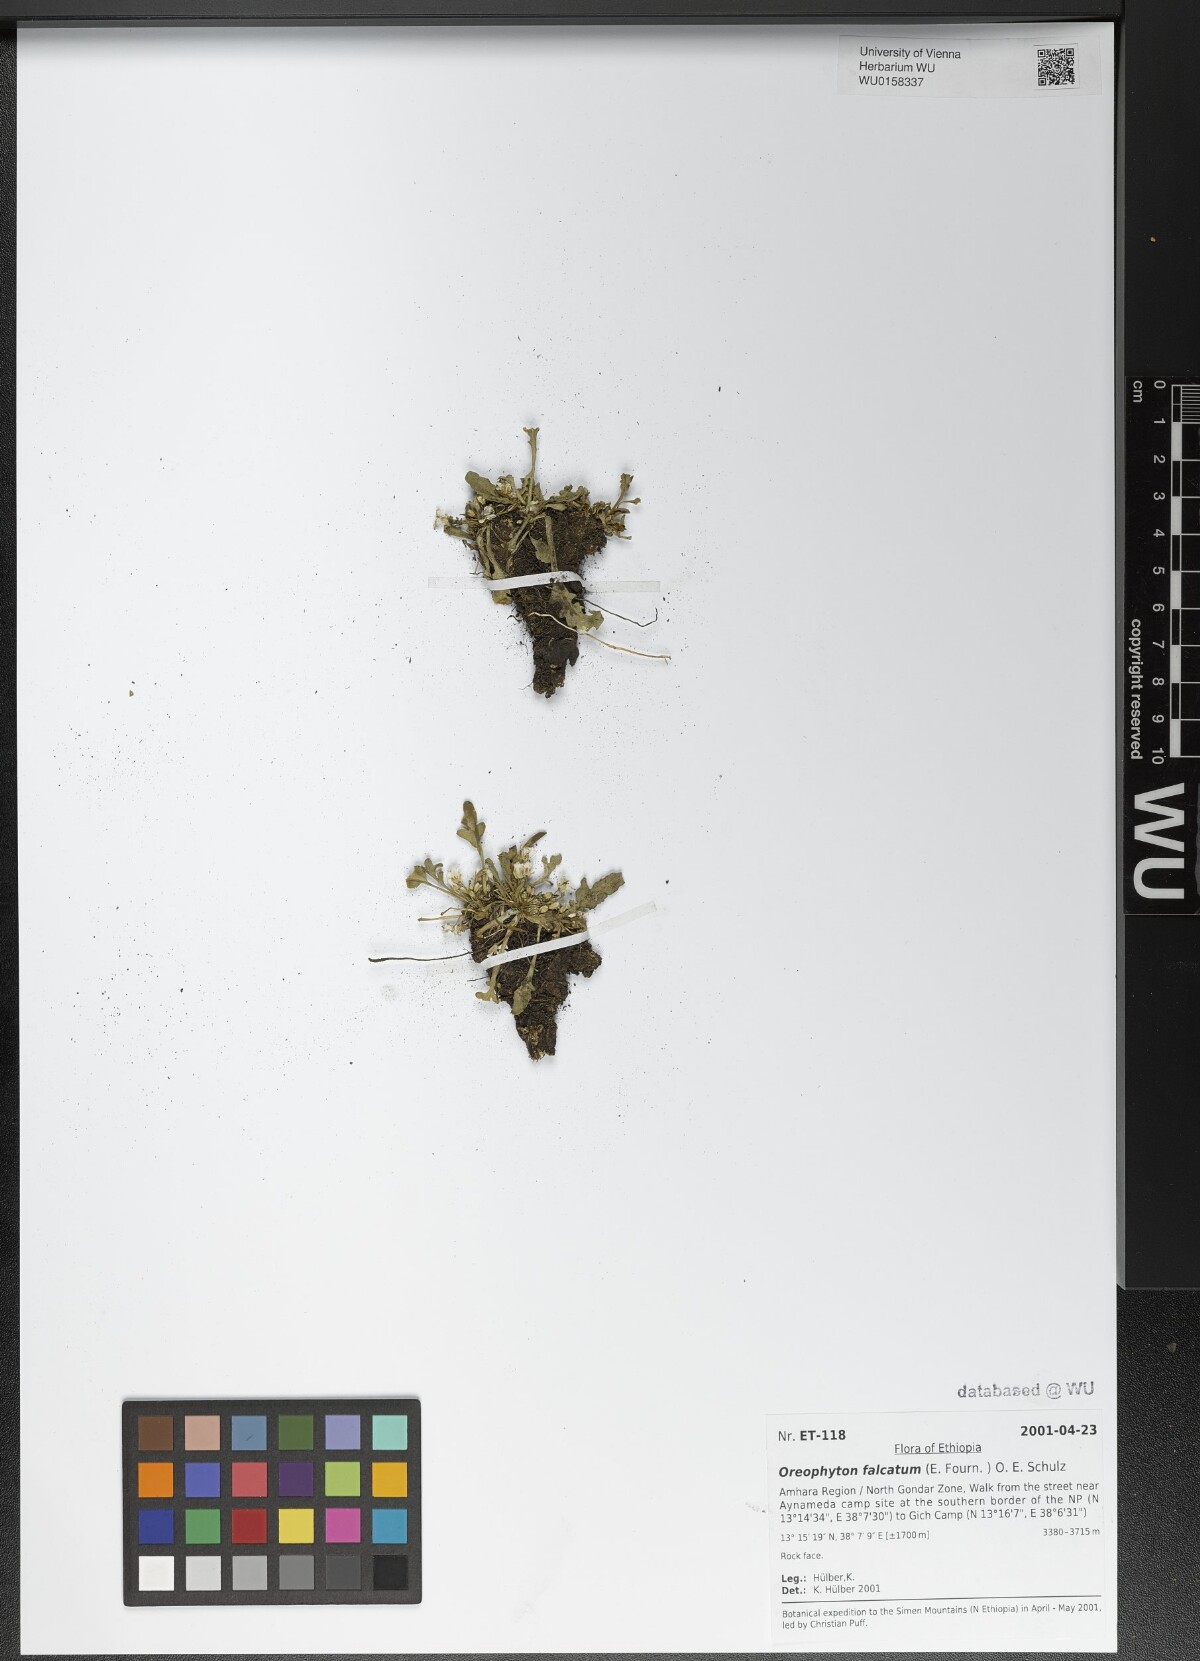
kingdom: Plantae
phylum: Tracheophyta
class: Magnoliopsida
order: Brassicales
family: Brassicaceae
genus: Oreophyton
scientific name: Oreophyton falcatum
